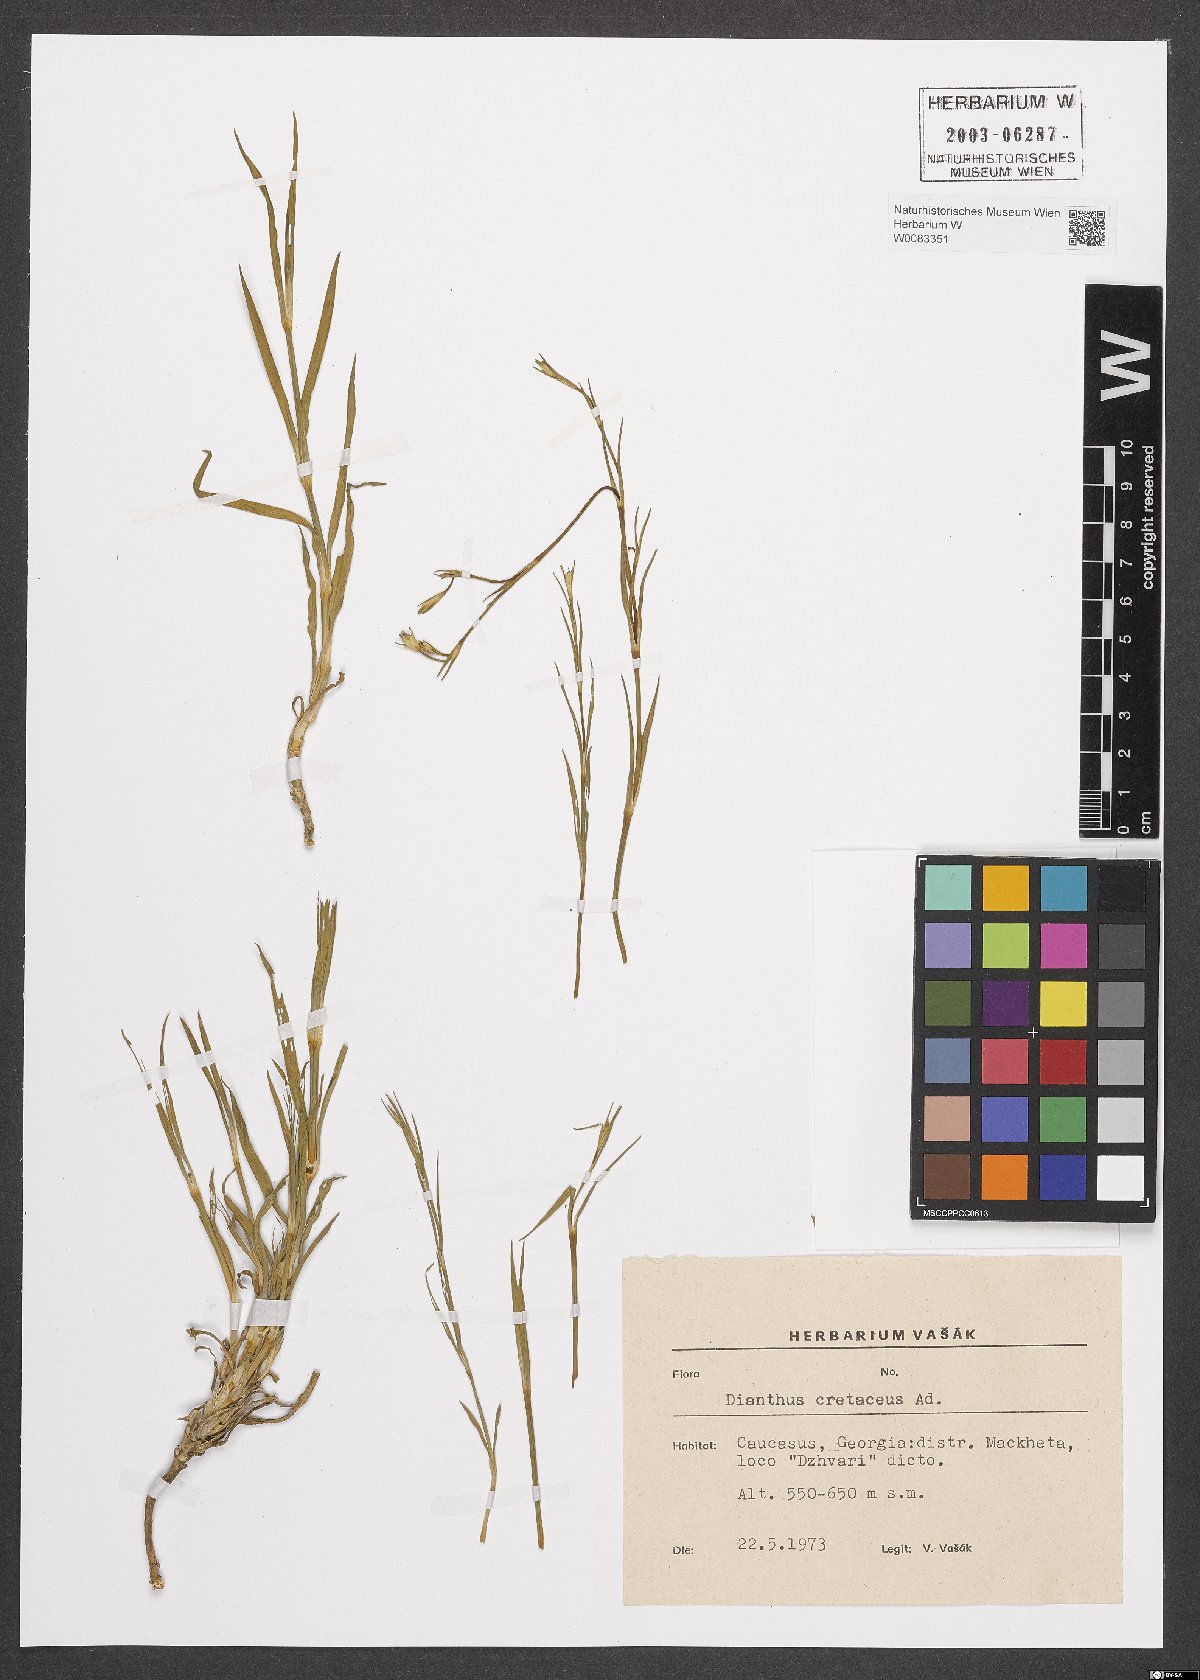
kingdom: Plantae
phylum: Tracheophyta
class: Magnoliopsida
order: Caryophyllales
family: Caryophyllaceae
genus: Dianthus
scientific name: Dianthus cretaceus
